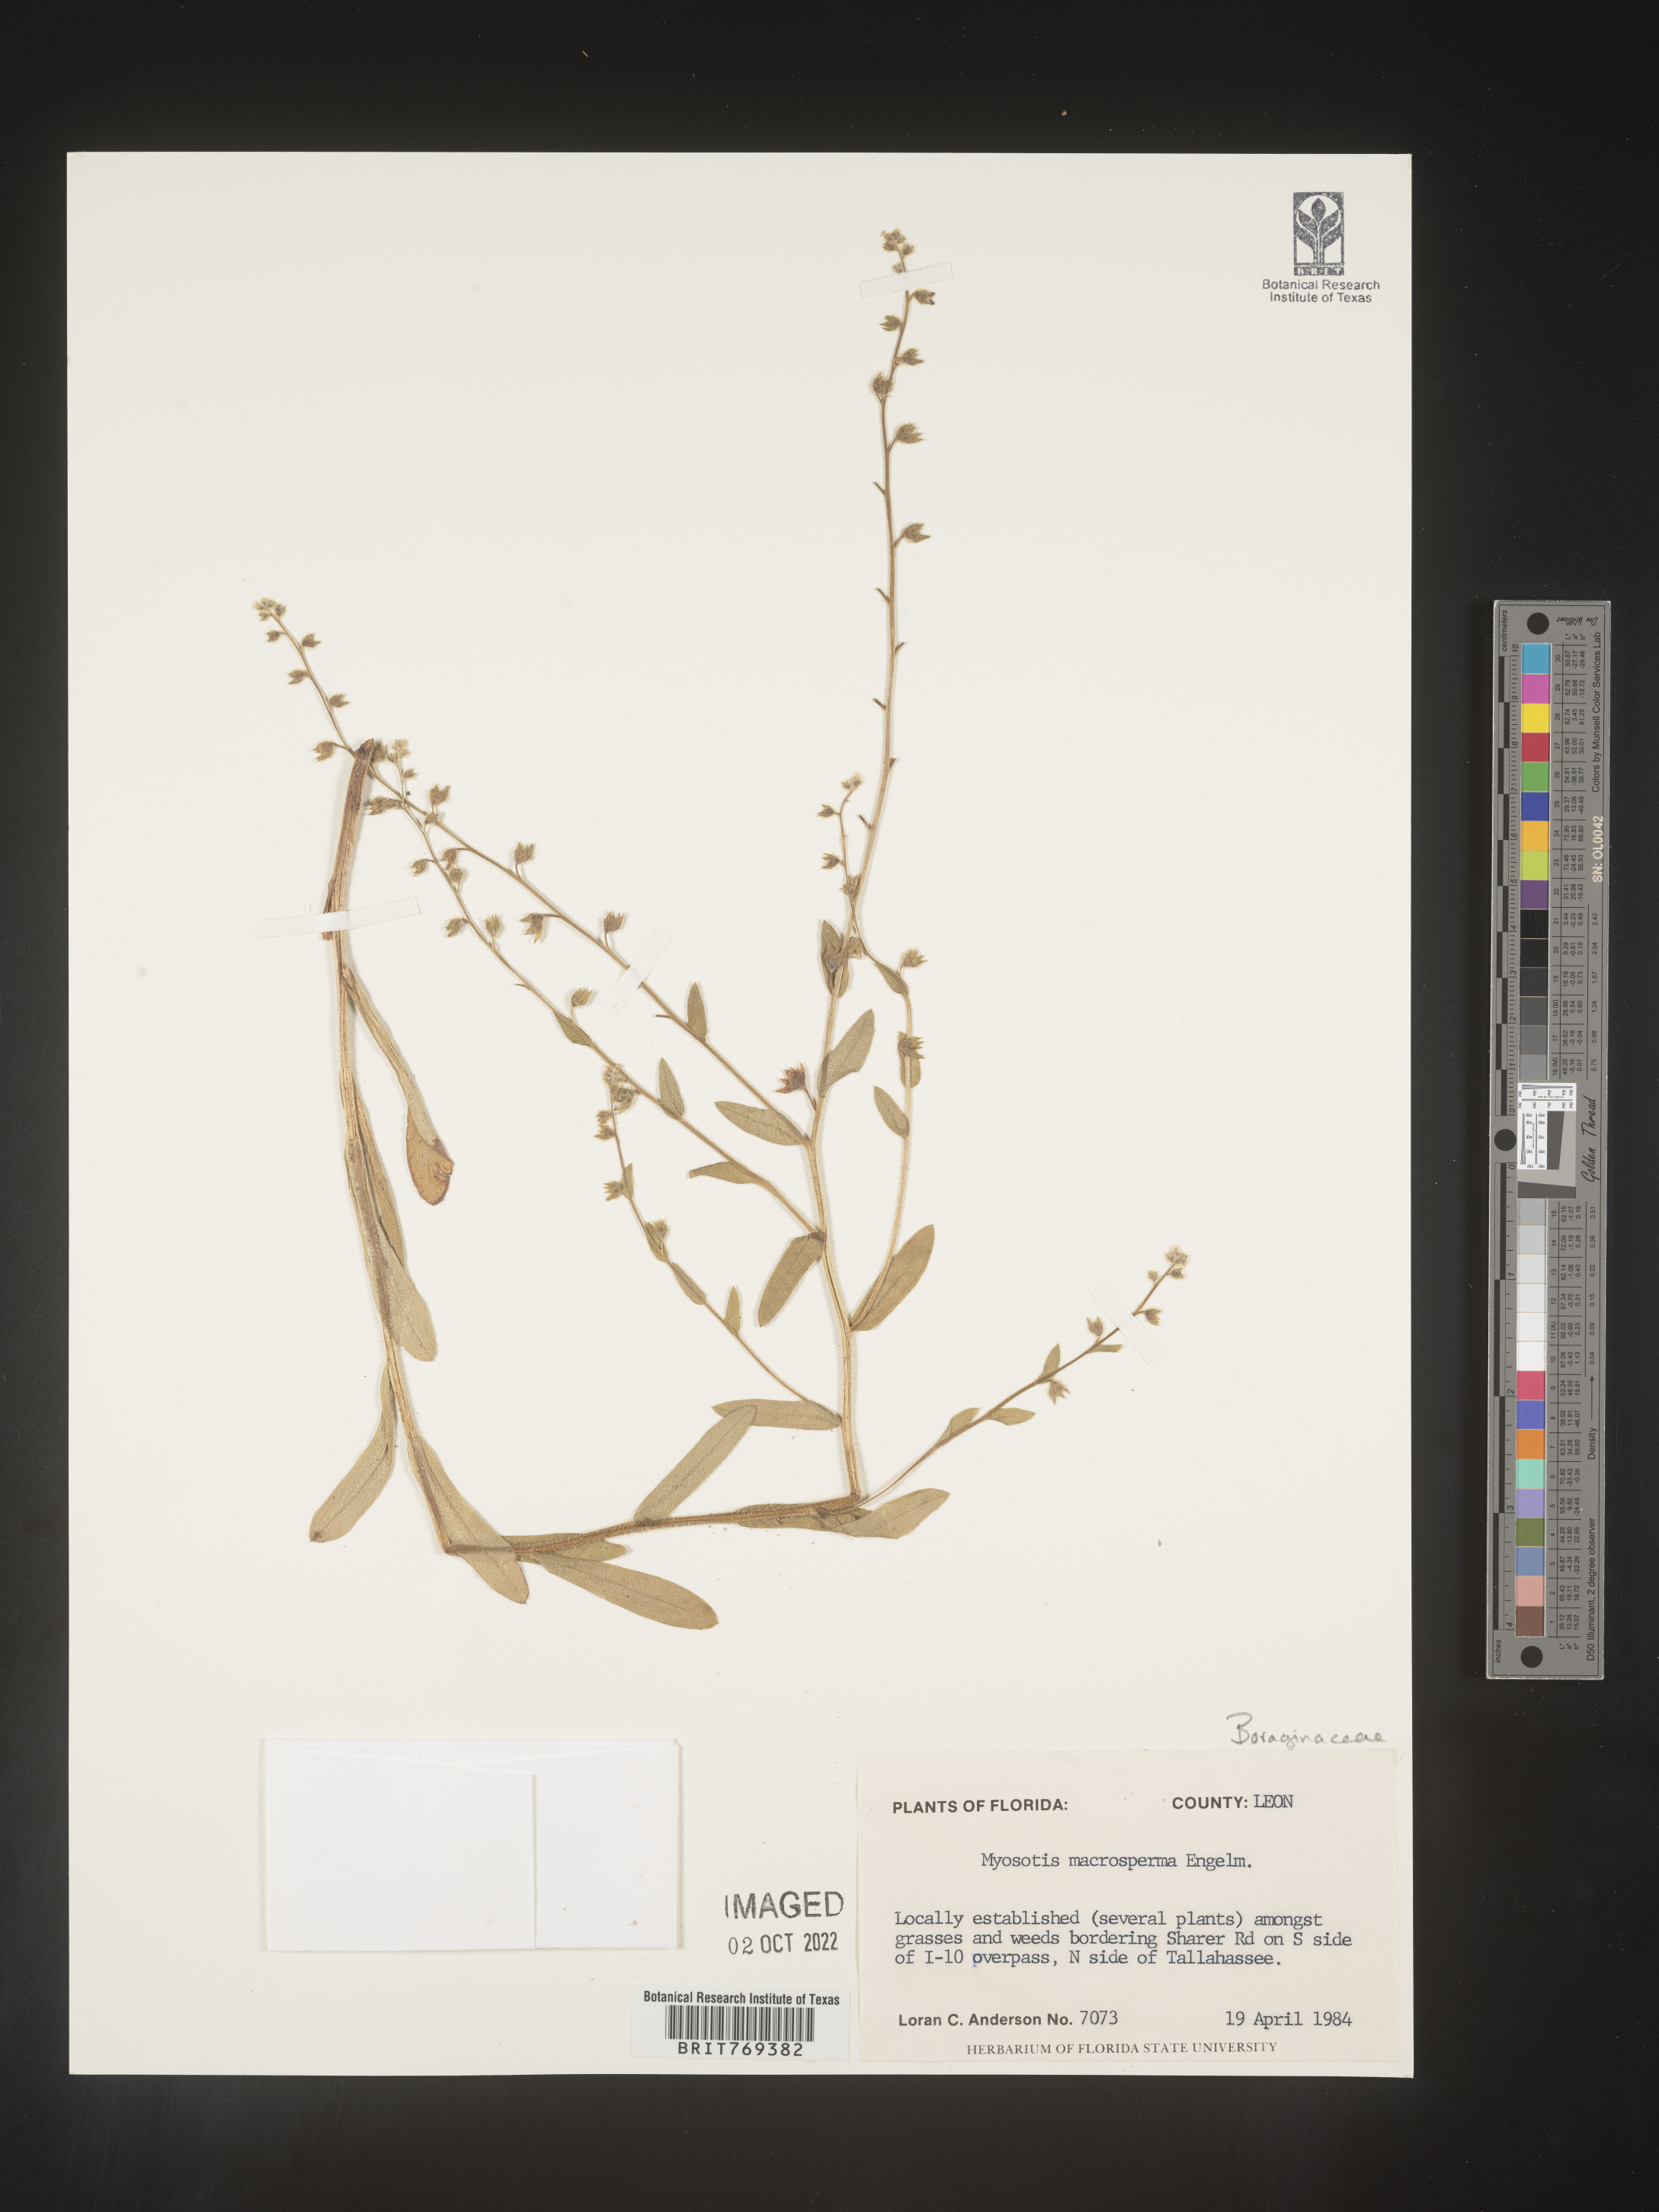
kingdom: Plantae
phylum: Tracheophyta
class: Magnoliopsida
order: Boraginales
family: Boraginaceae
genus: Myosotis
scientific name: Myosotis macrosperma
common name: Large-seed forget-me-not
